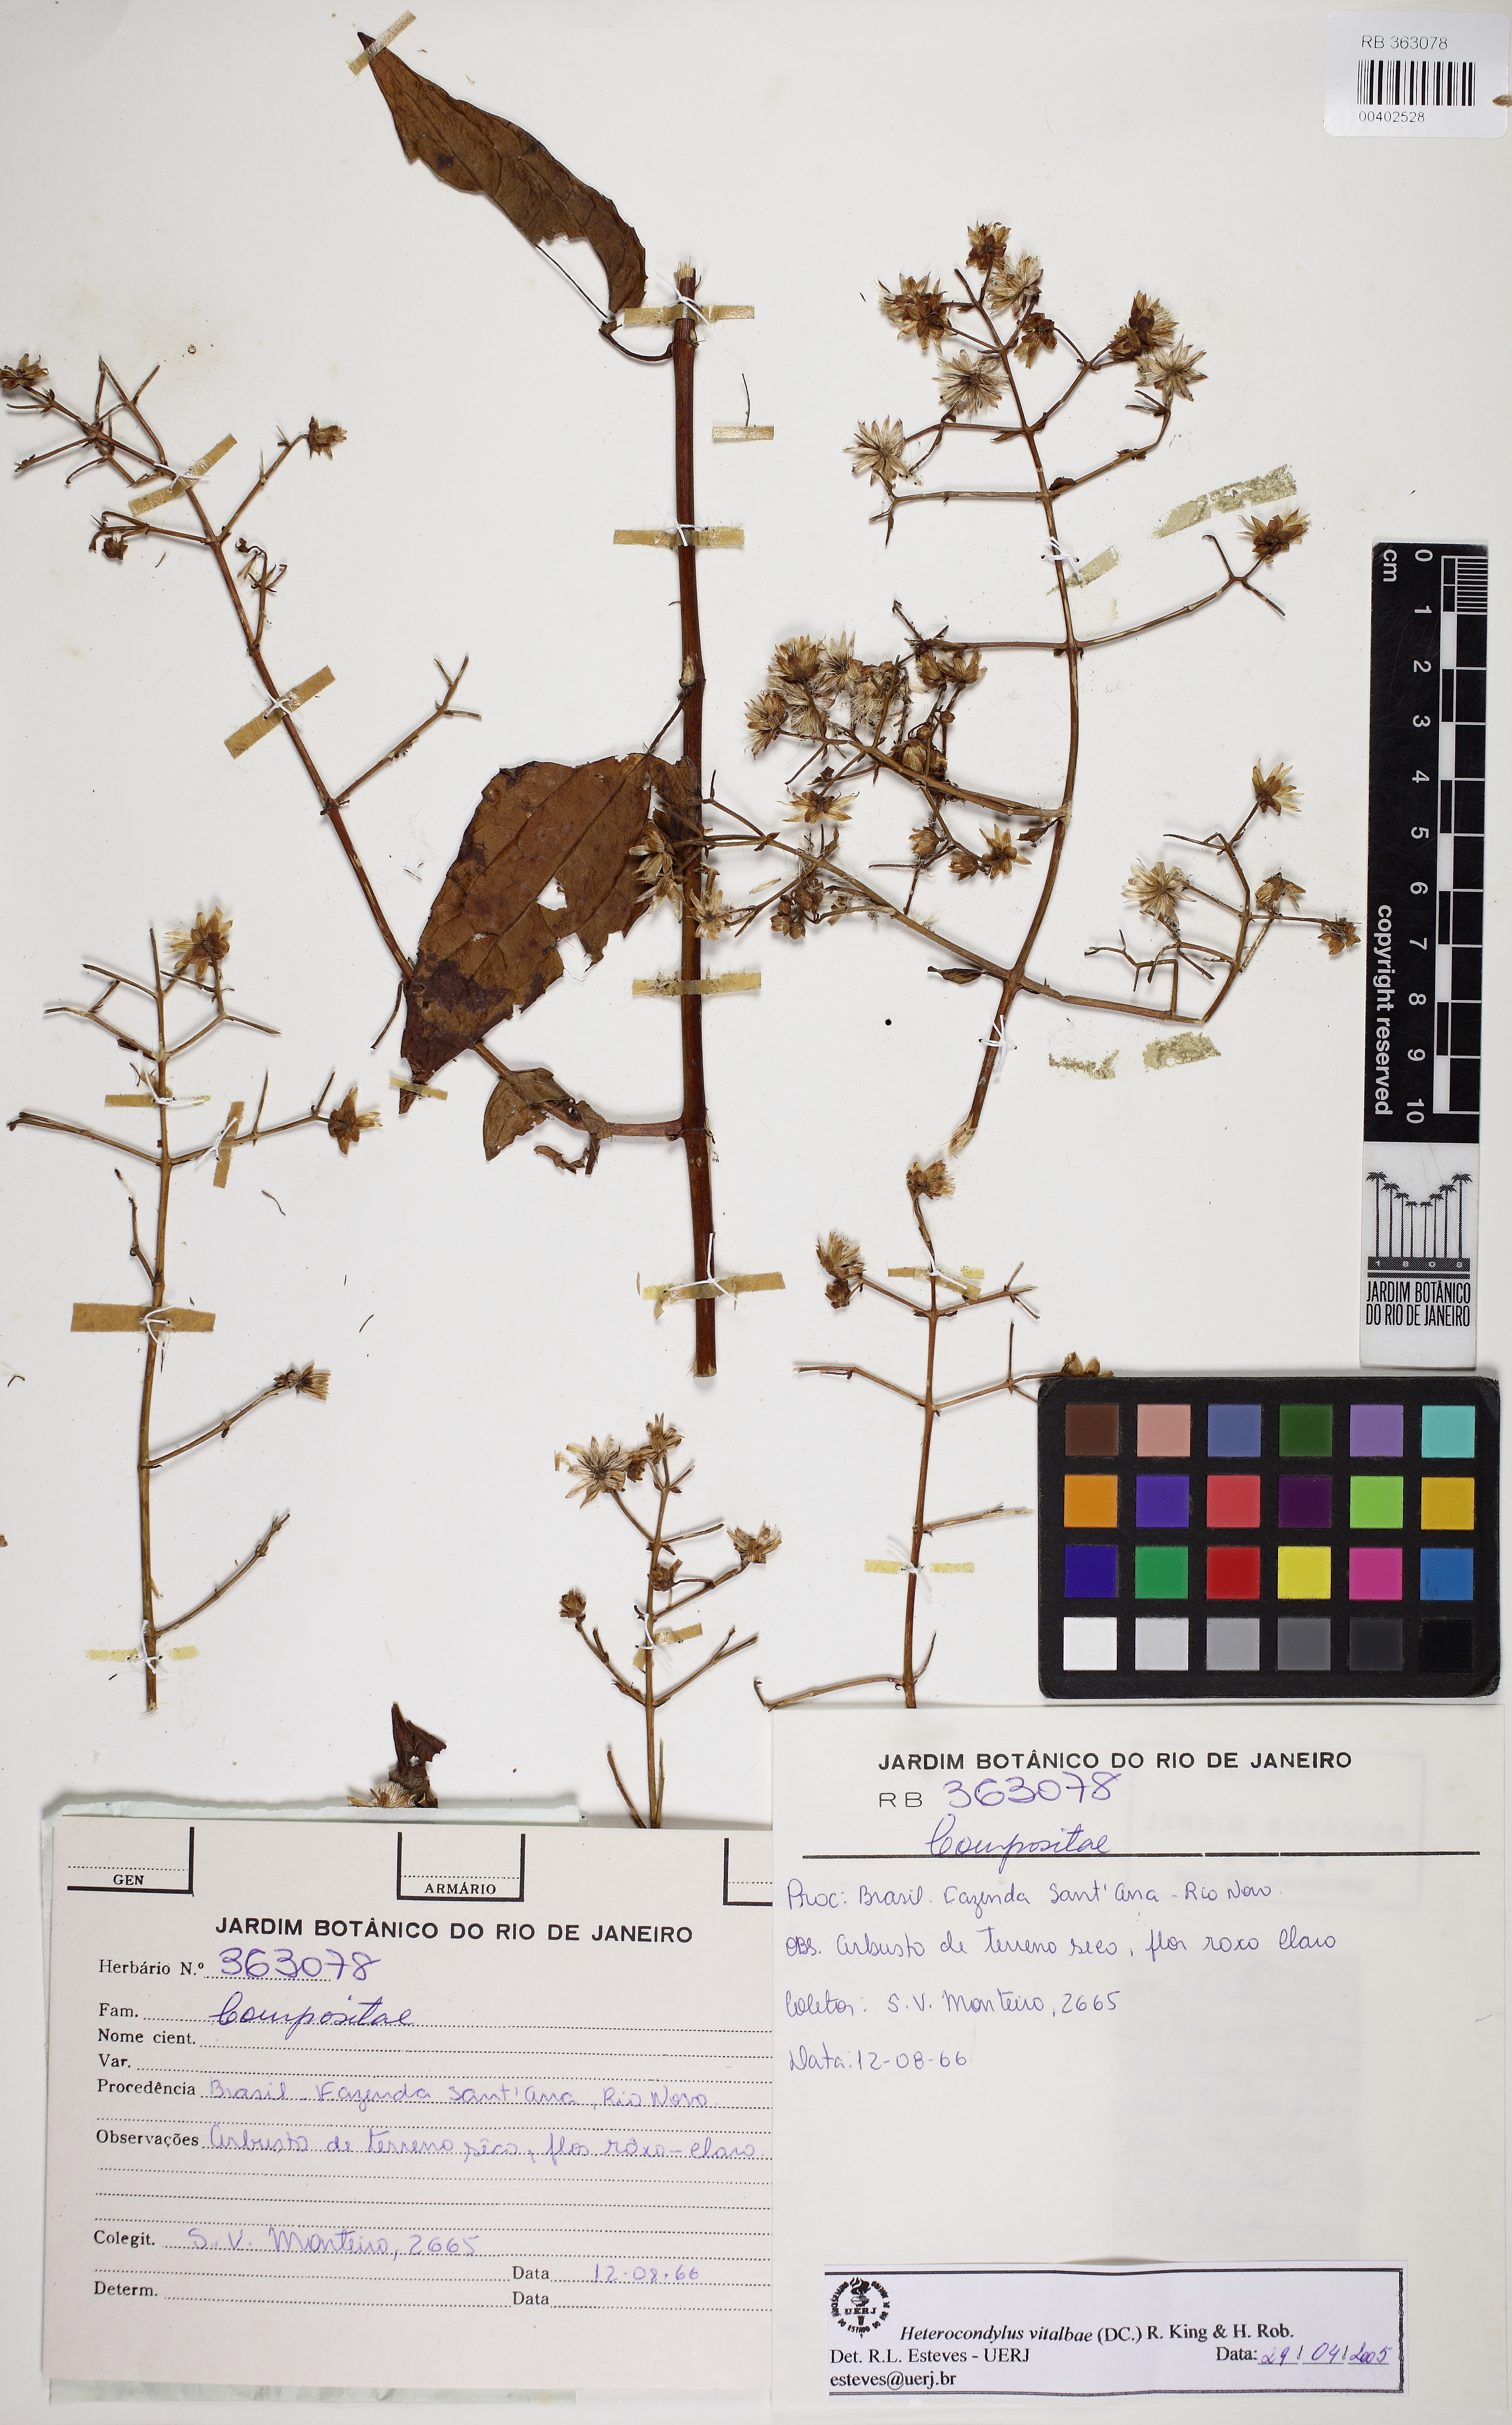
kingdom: Plantae
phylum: Tracheophyta
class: Magnoliopsida
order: Asterales
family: Asteraceae
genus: Heterocondylus
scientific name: Heterocondylus vitalbae
